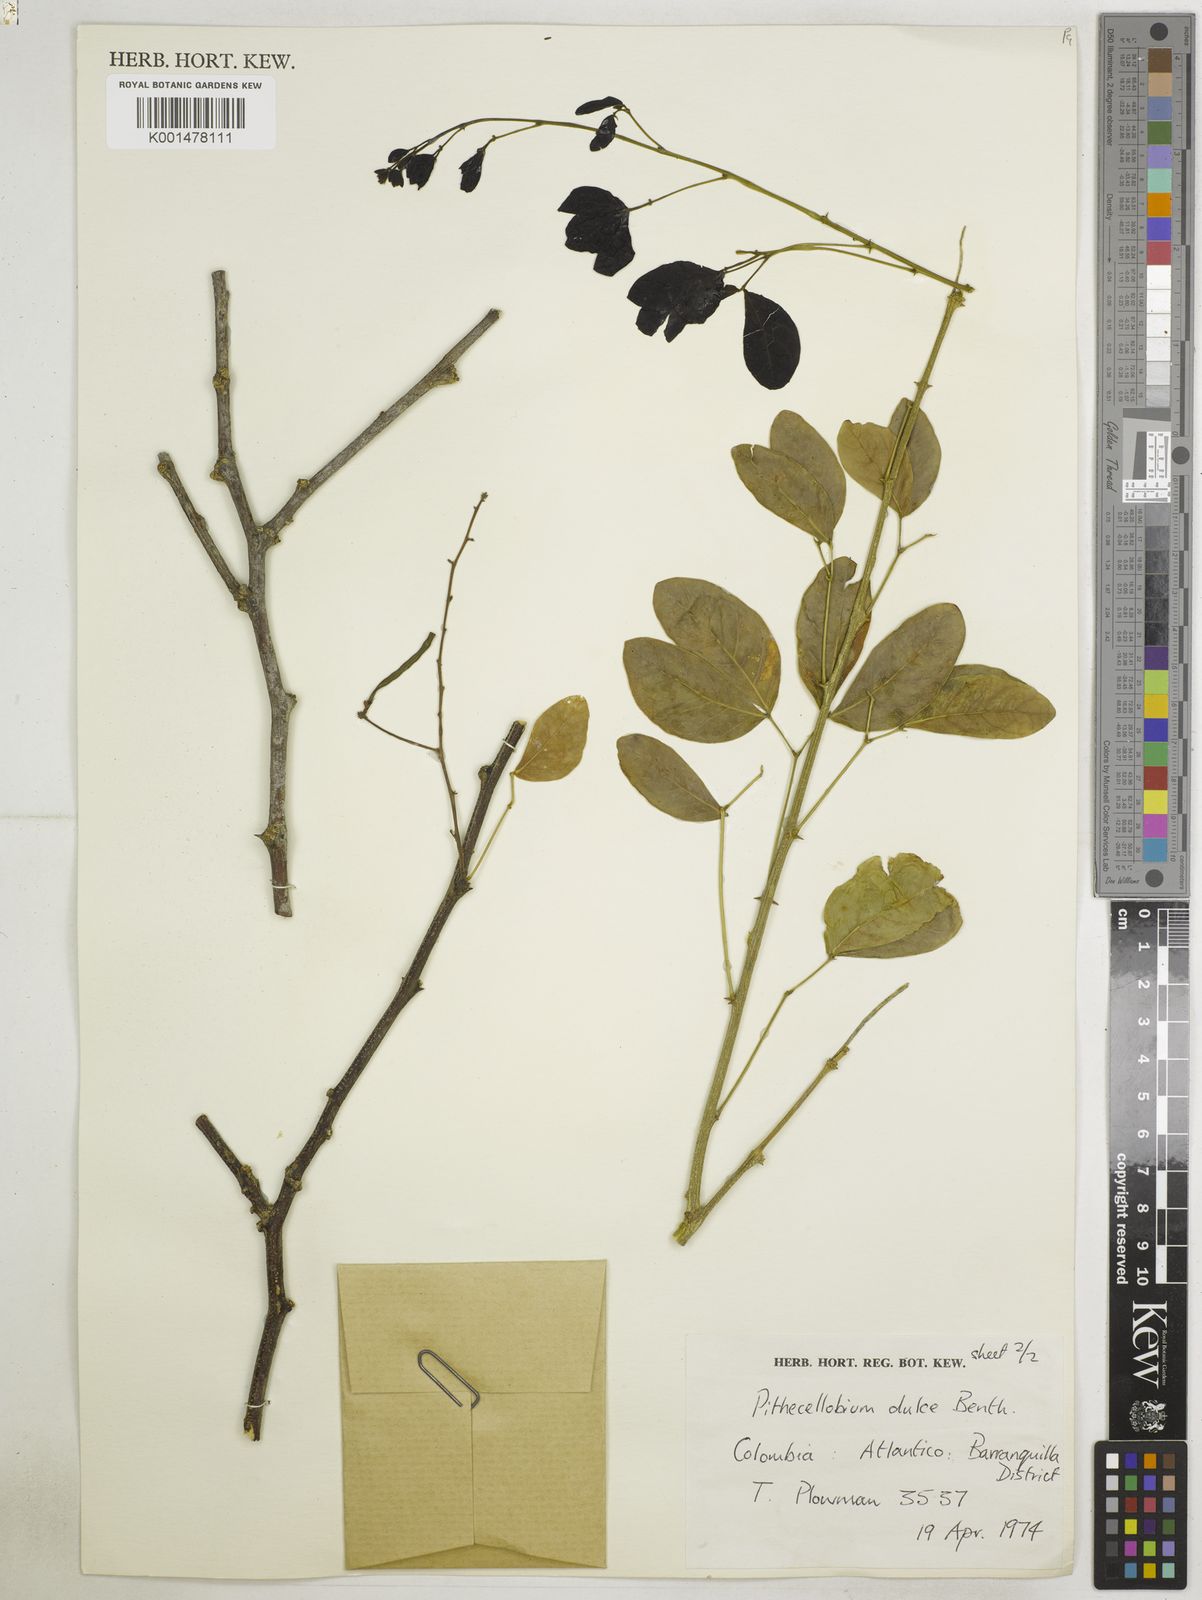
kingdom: Plantae
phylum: Tracheophyta
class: Magnoliopsida
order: Fabales
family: Fabaceae
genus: Pithecellobium
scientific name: Pithecellobium dulce
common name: Monkeypod
